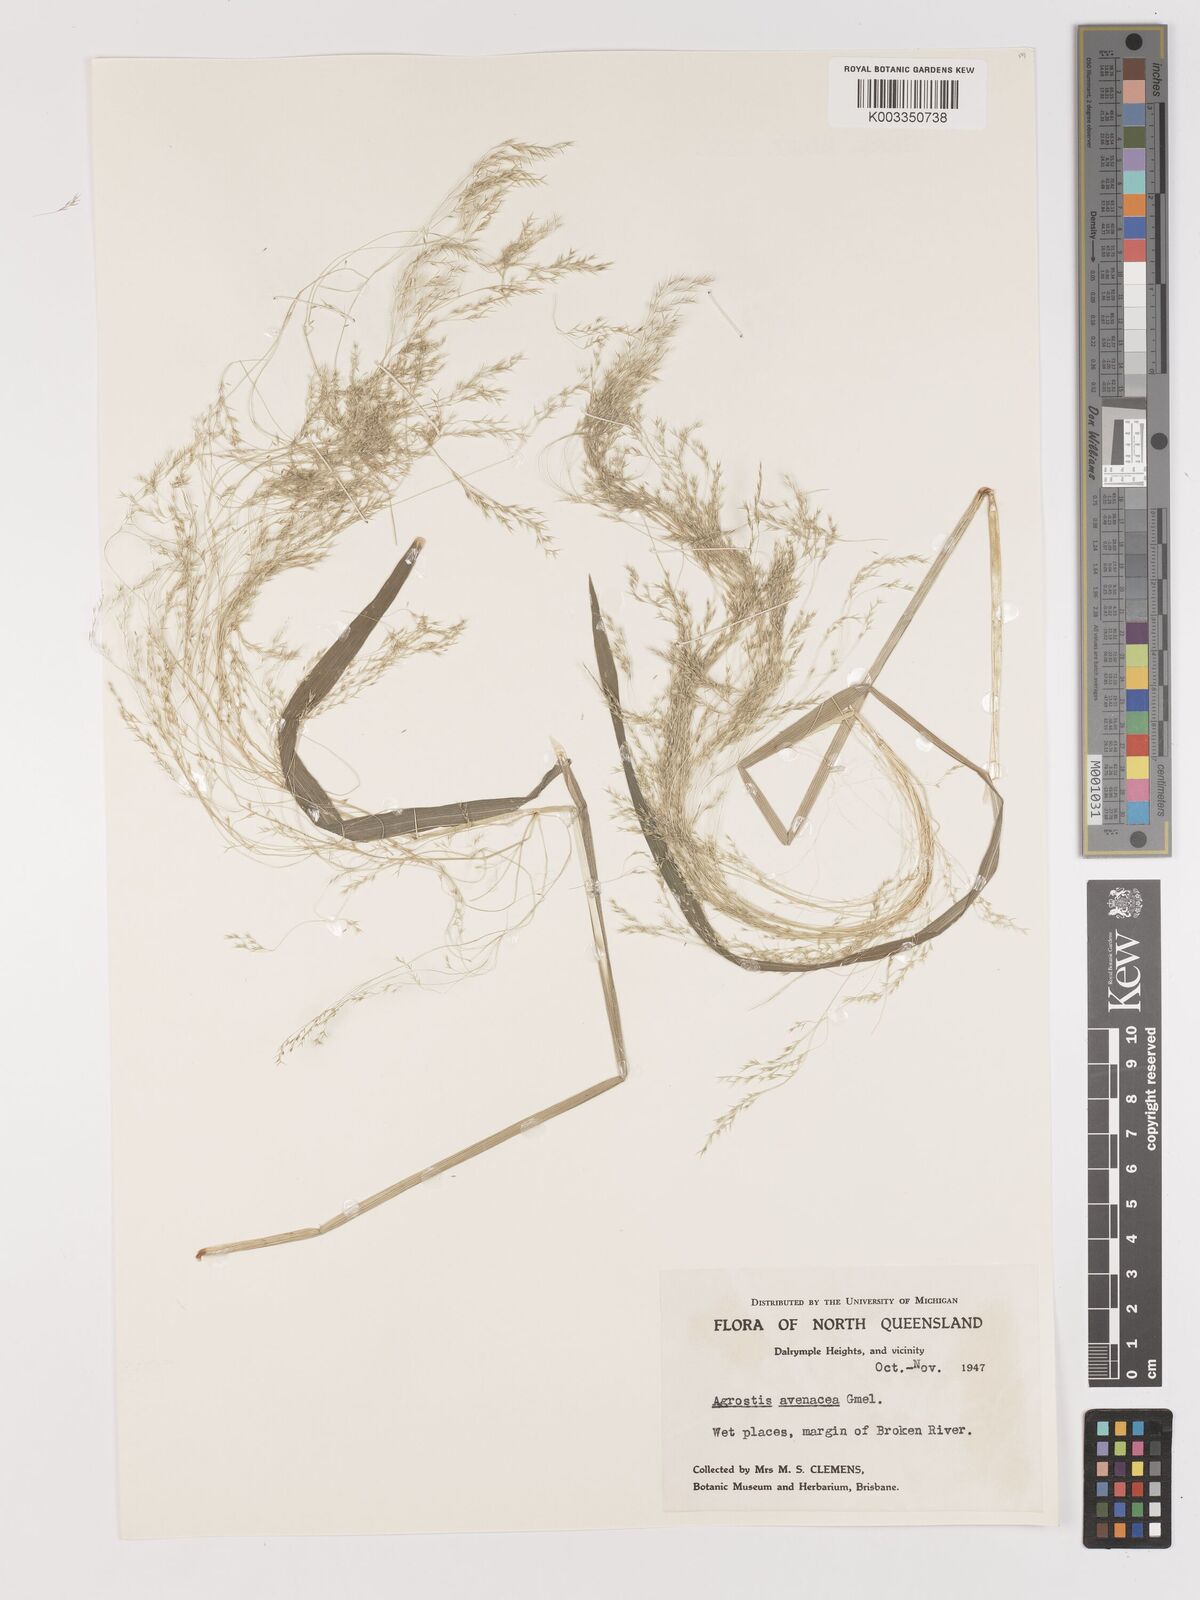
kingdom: Plantae
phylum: Tracheophyta
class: Liliopsida
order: Poales
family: Poaceae
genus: Lachnagrostis
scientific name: Lachnagrostis filiformis
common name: Bentgrass
